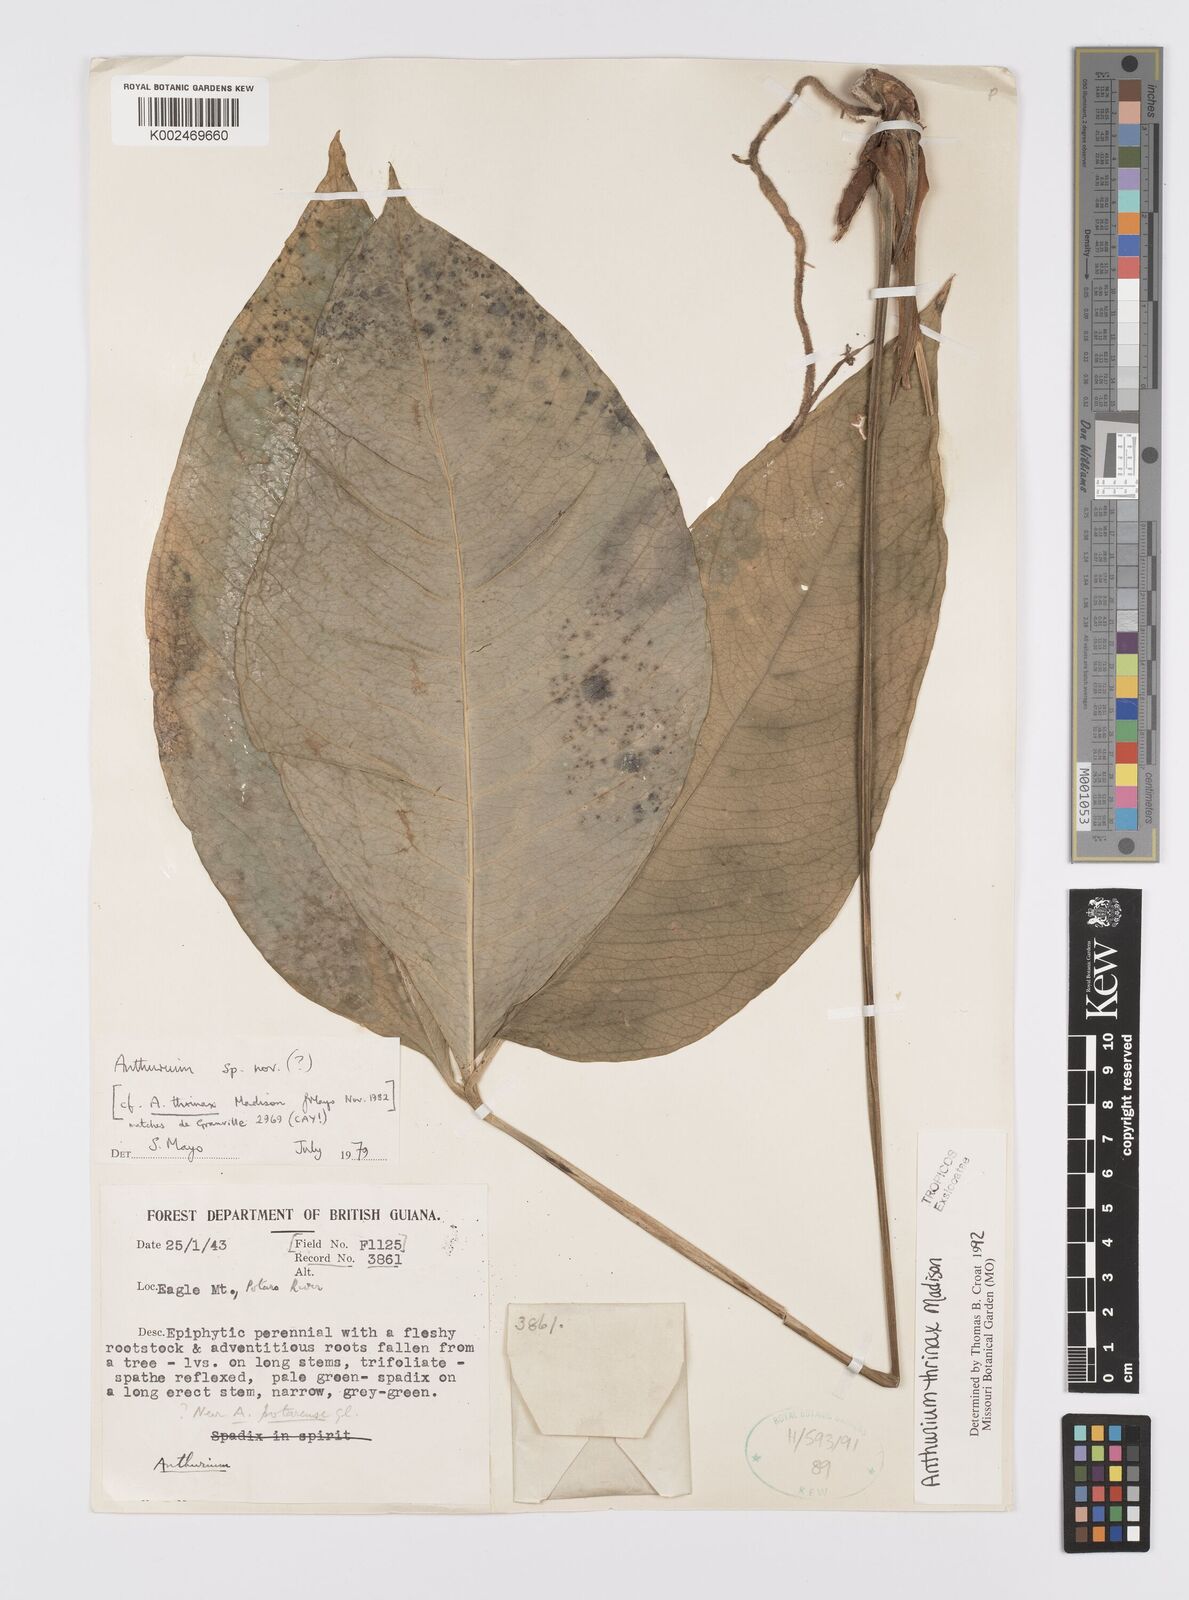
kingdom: Plantae
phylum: Tracheophyta
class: Liliopsida
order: Alismatales
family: Araceae
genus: Anthurium
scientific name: Anthurium thrinax
